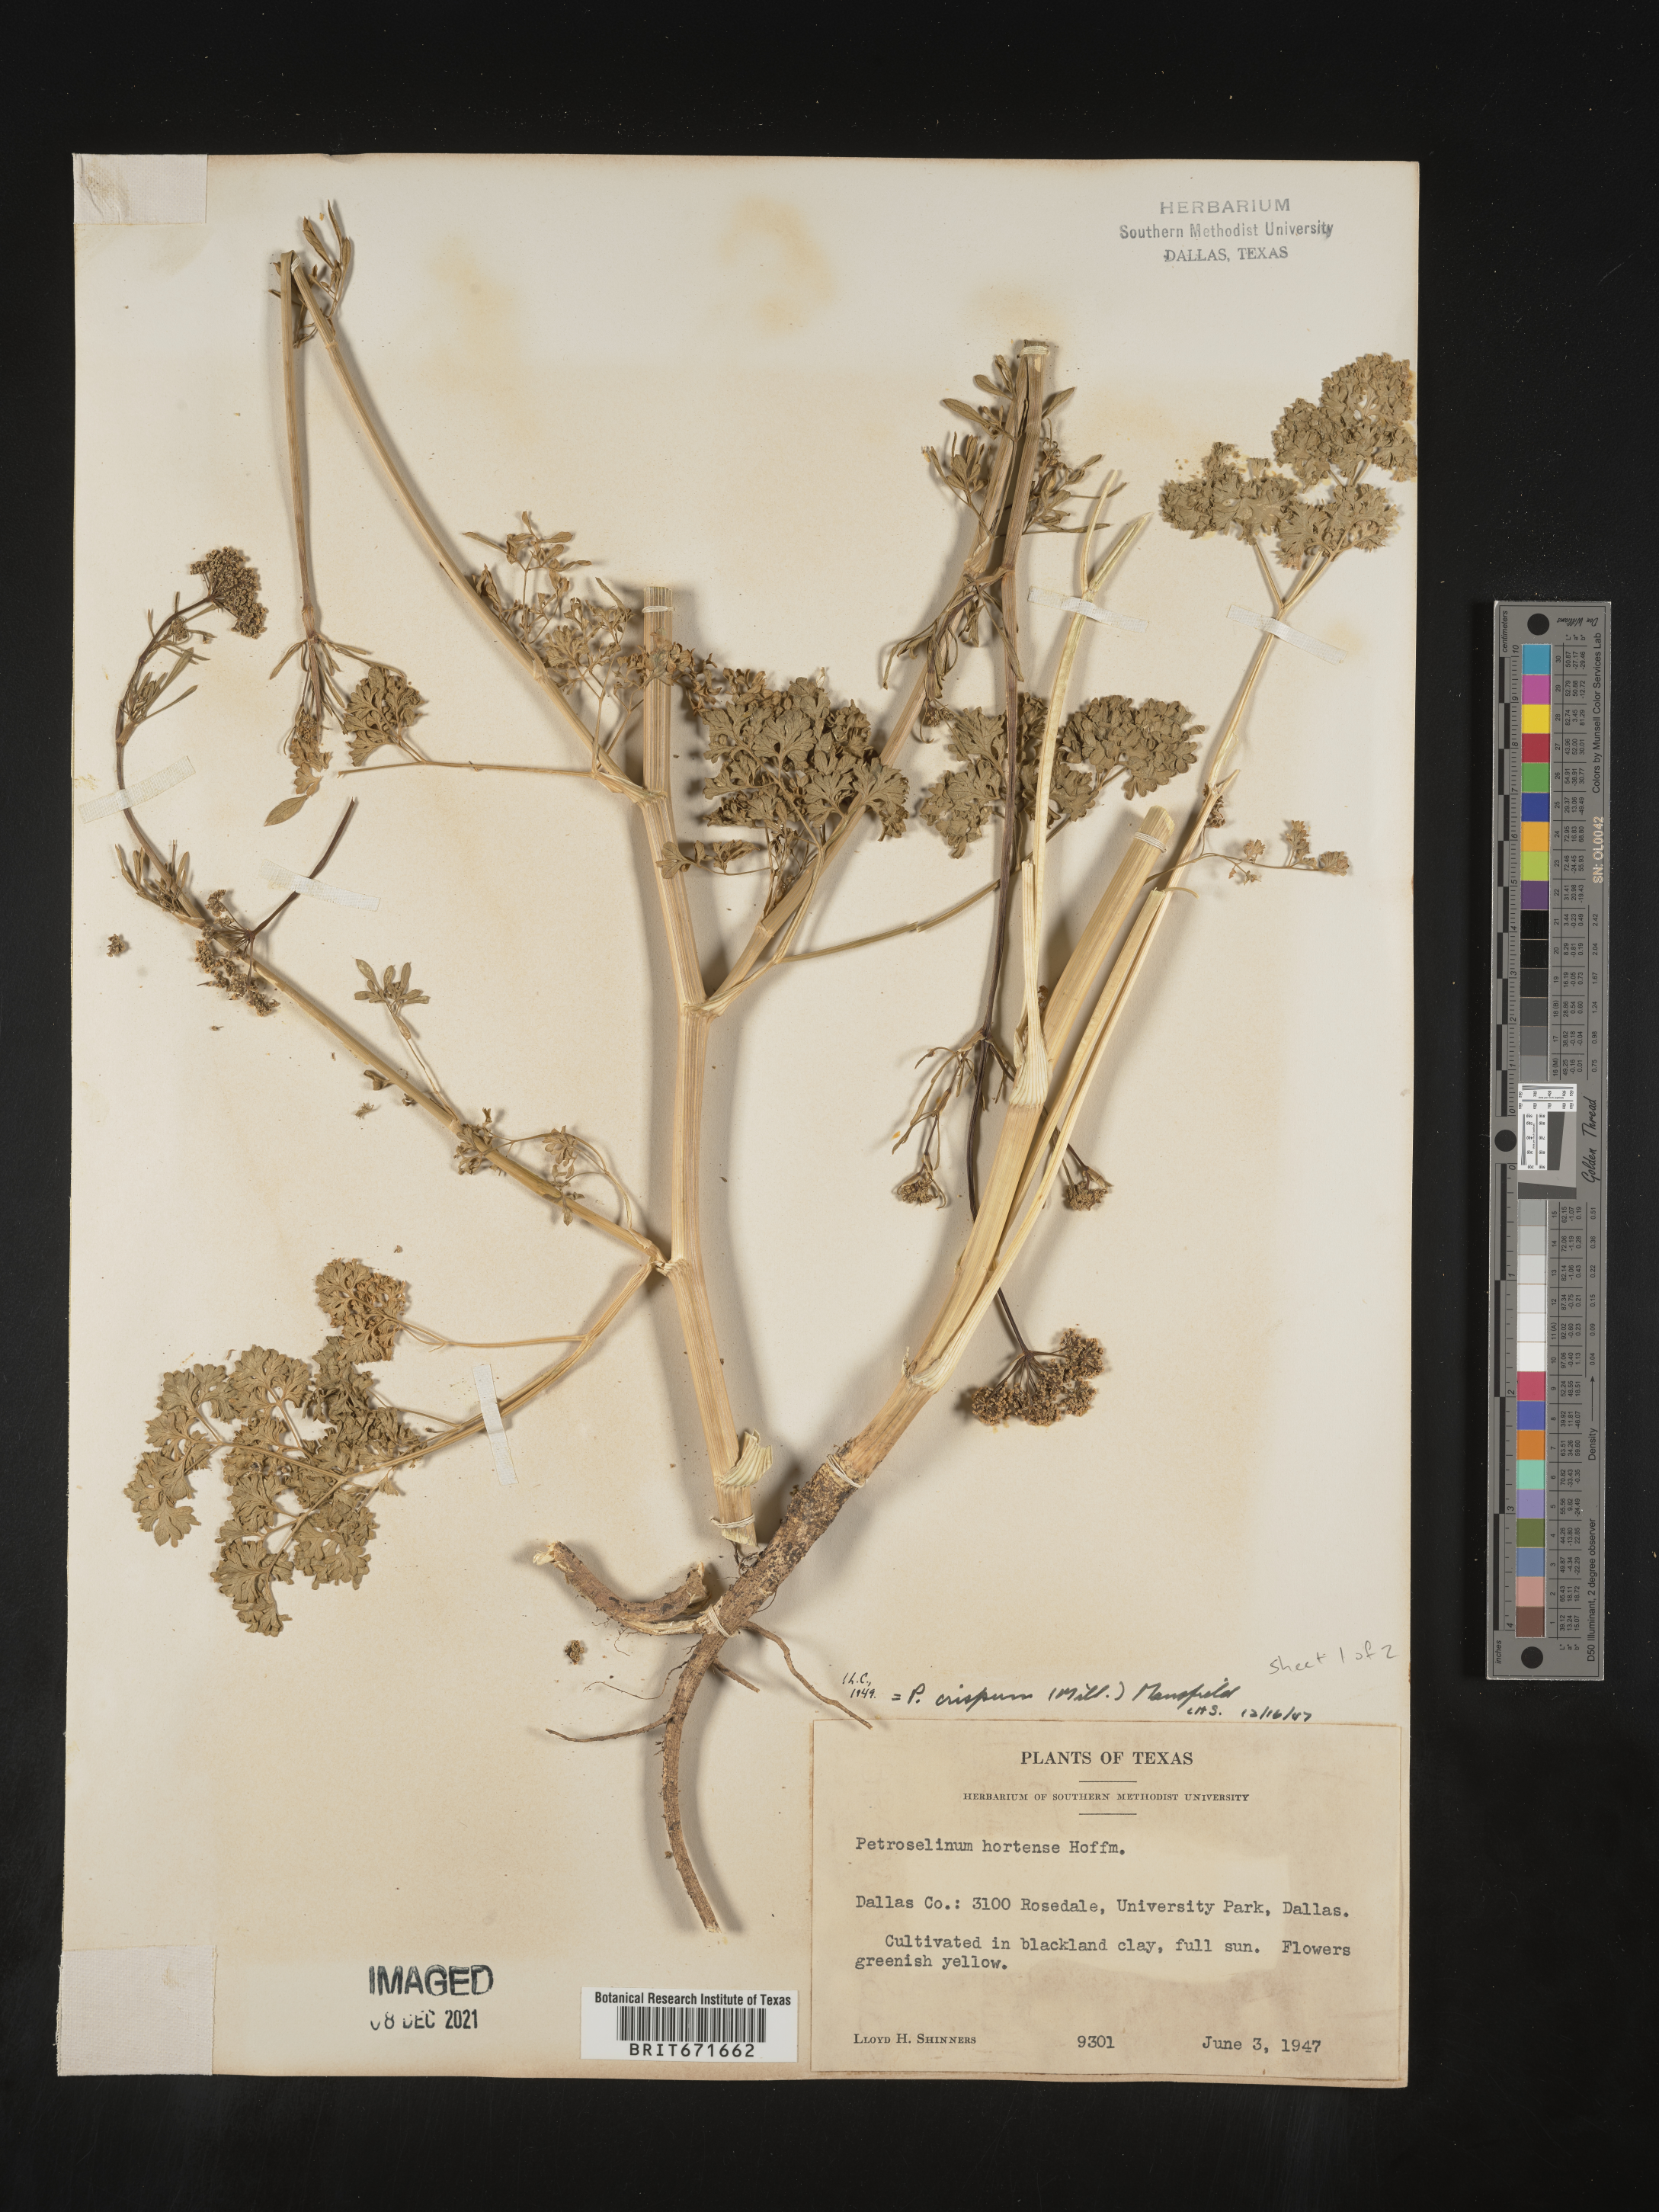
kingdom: Plantae
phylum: Tracheophyta
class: Magnoliopsida
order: Apiales
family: Apiaceae
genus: Petroselinum
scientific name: Petroselinum
